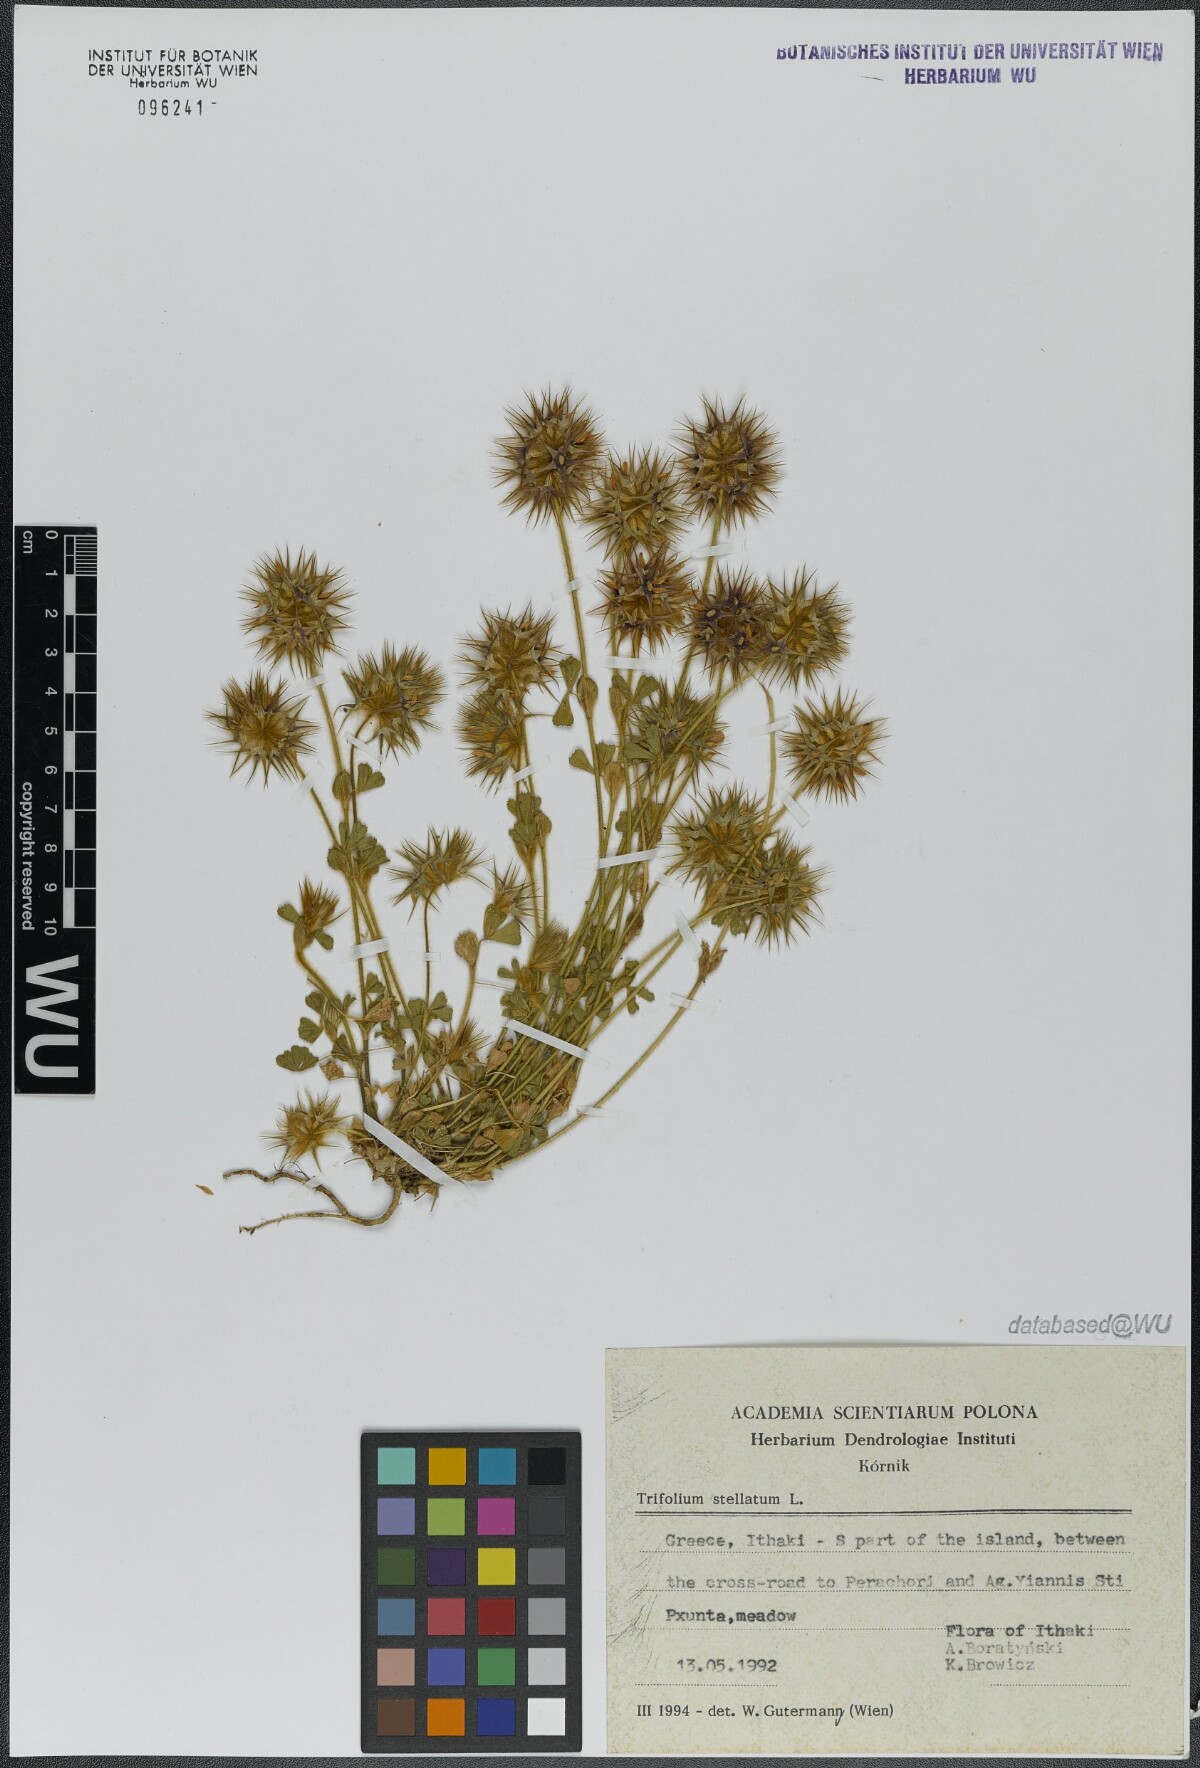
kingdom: Plantae
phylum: Tracheophyta
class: Magnoliopsida
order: Fabales
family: Fabaceae
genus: Trifolium
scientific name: Trifolium stellatum
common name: Starry clover
